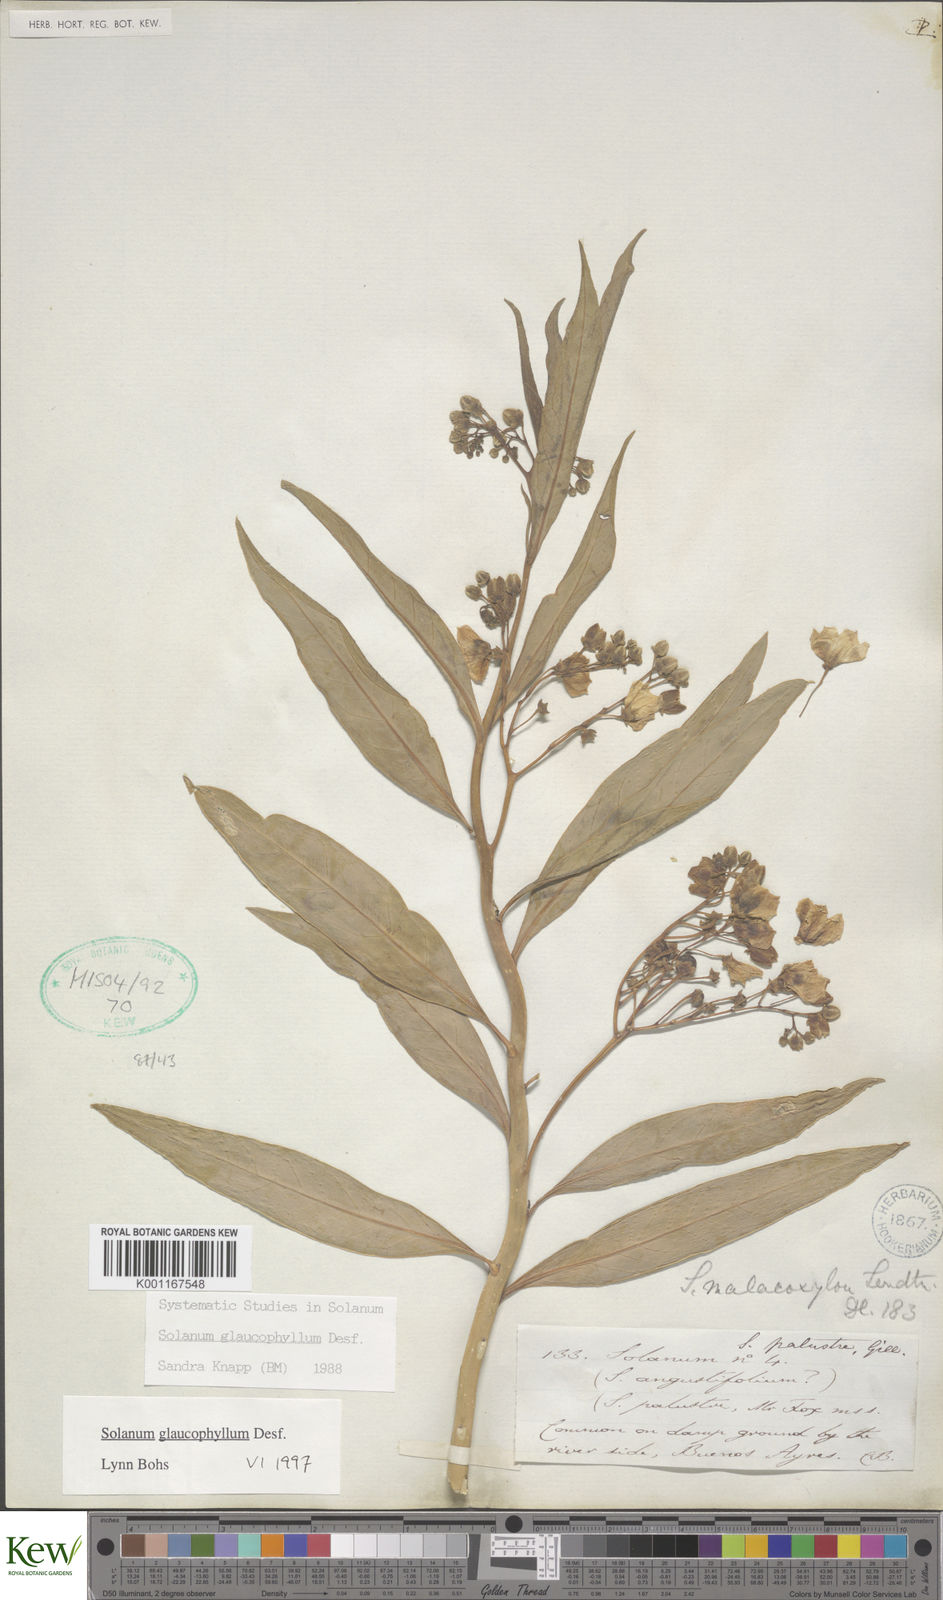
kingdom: Plantae
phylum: Tracheophyta
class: Magnoliopsida
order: Solanales
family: Solanaceae
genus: Solanum
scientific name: Solanum glaucophyllum
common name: Waxyleaf nightshade
